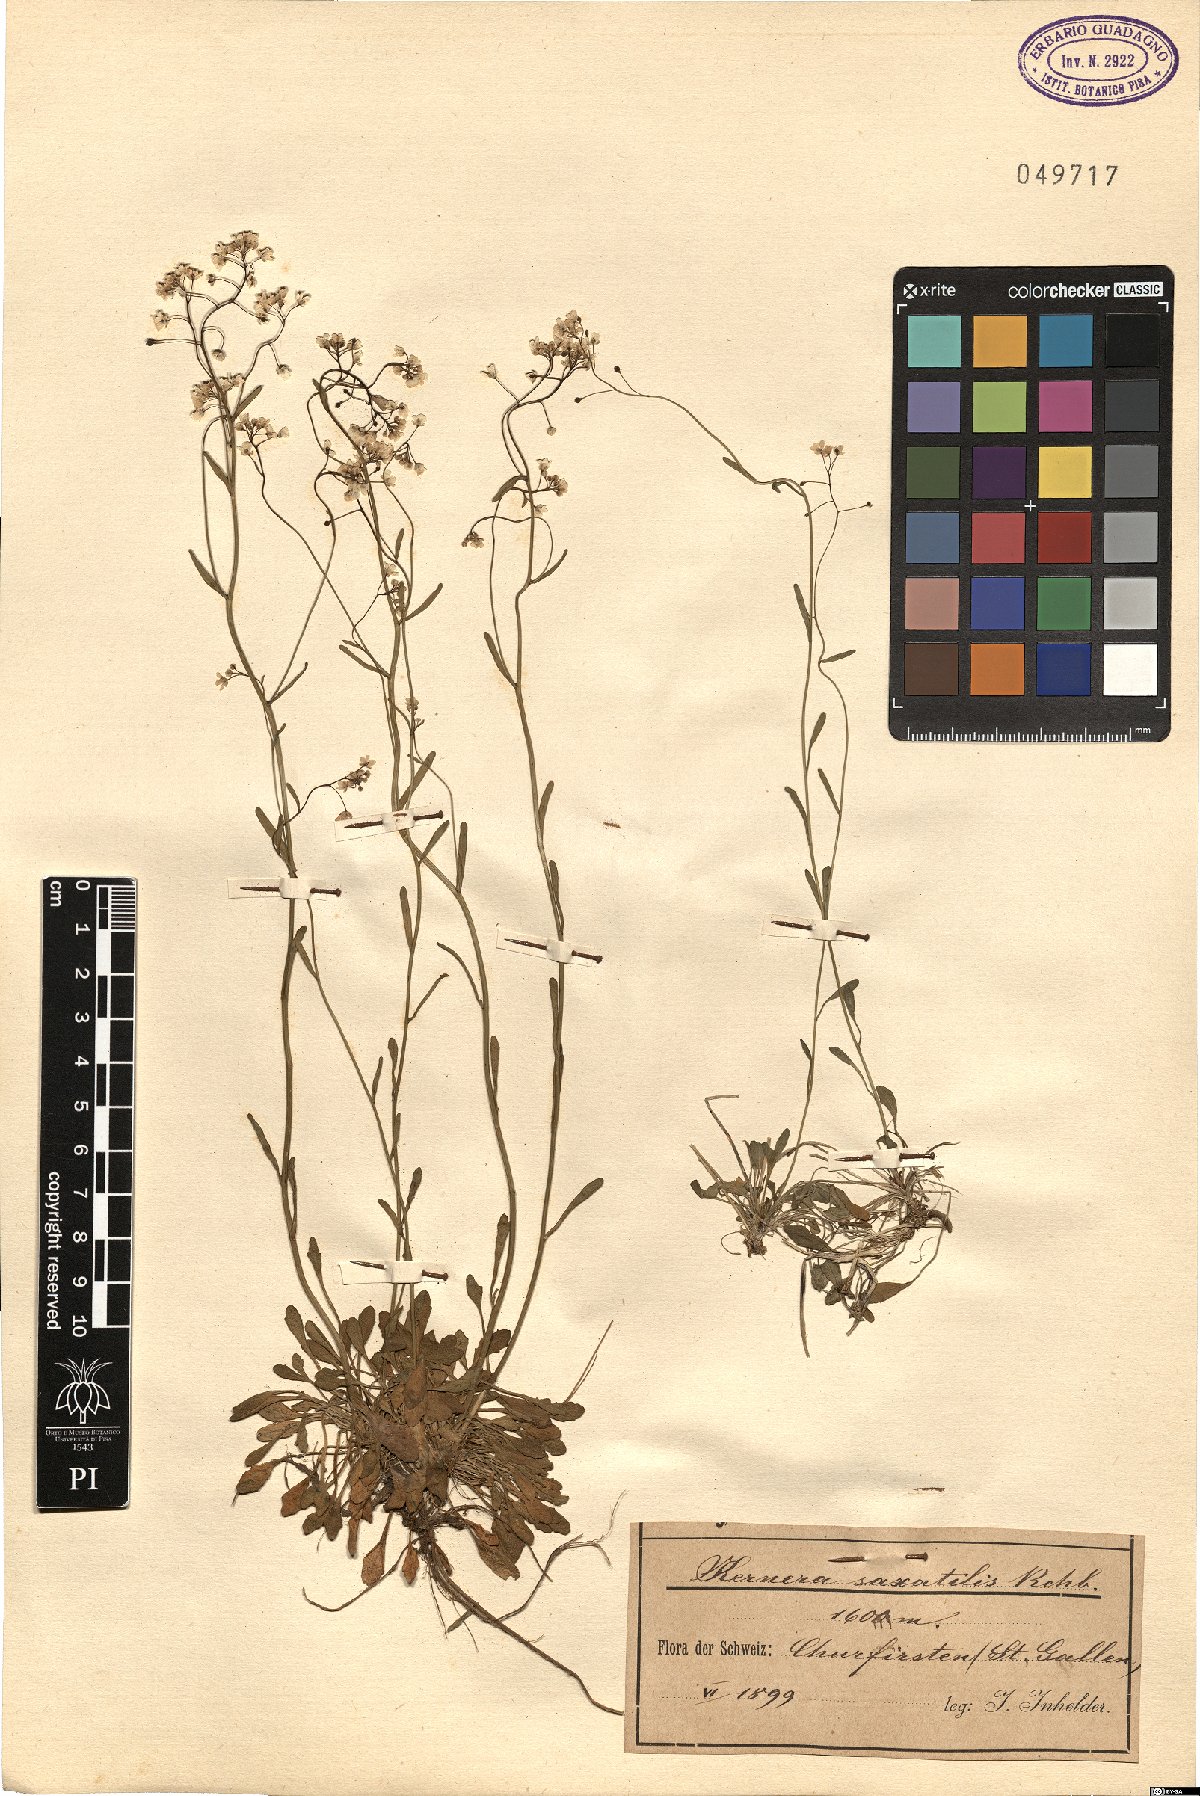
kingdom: Plantae
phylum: Tracheophyta
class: Magnoliopsida
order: Brassicales
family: Brassicaceae
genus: Kernera
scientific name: Kernera saxatilis
